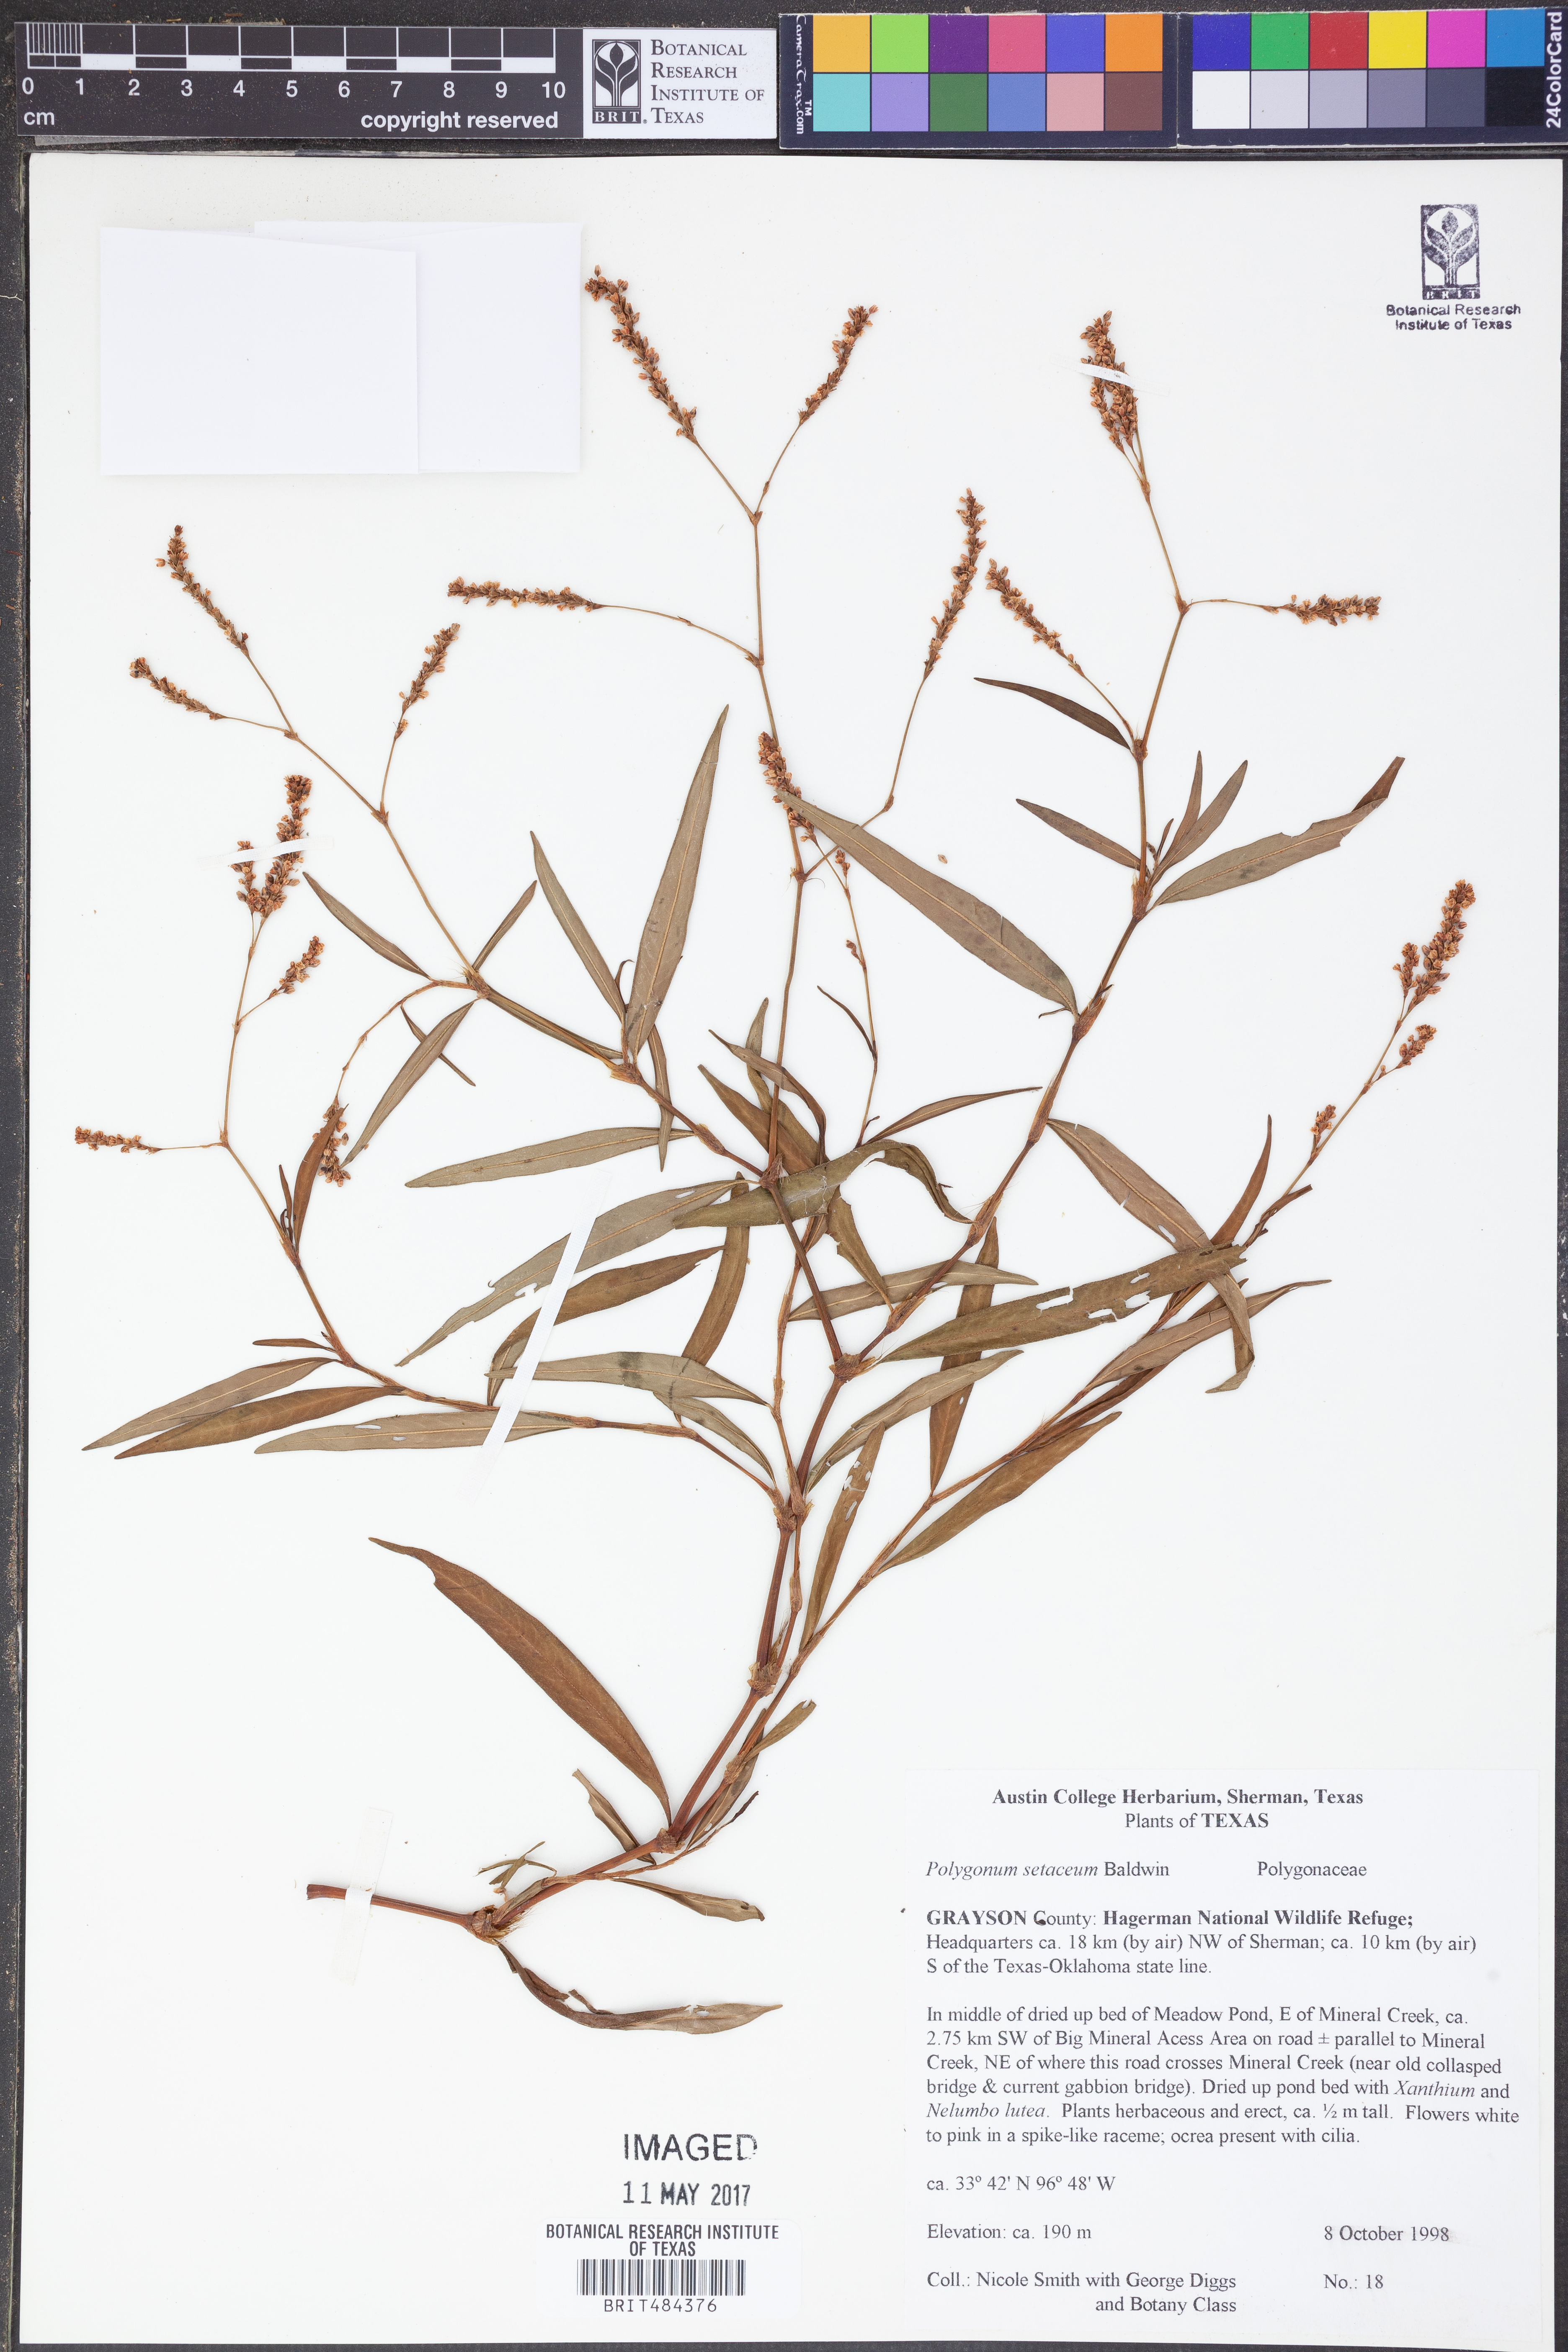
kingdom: Plantae
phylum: Tracheophyta
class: Magnoliopsida
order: Caryophyllales
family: Polygonaceae
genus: Persicaria
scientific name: Persicaria setacea
